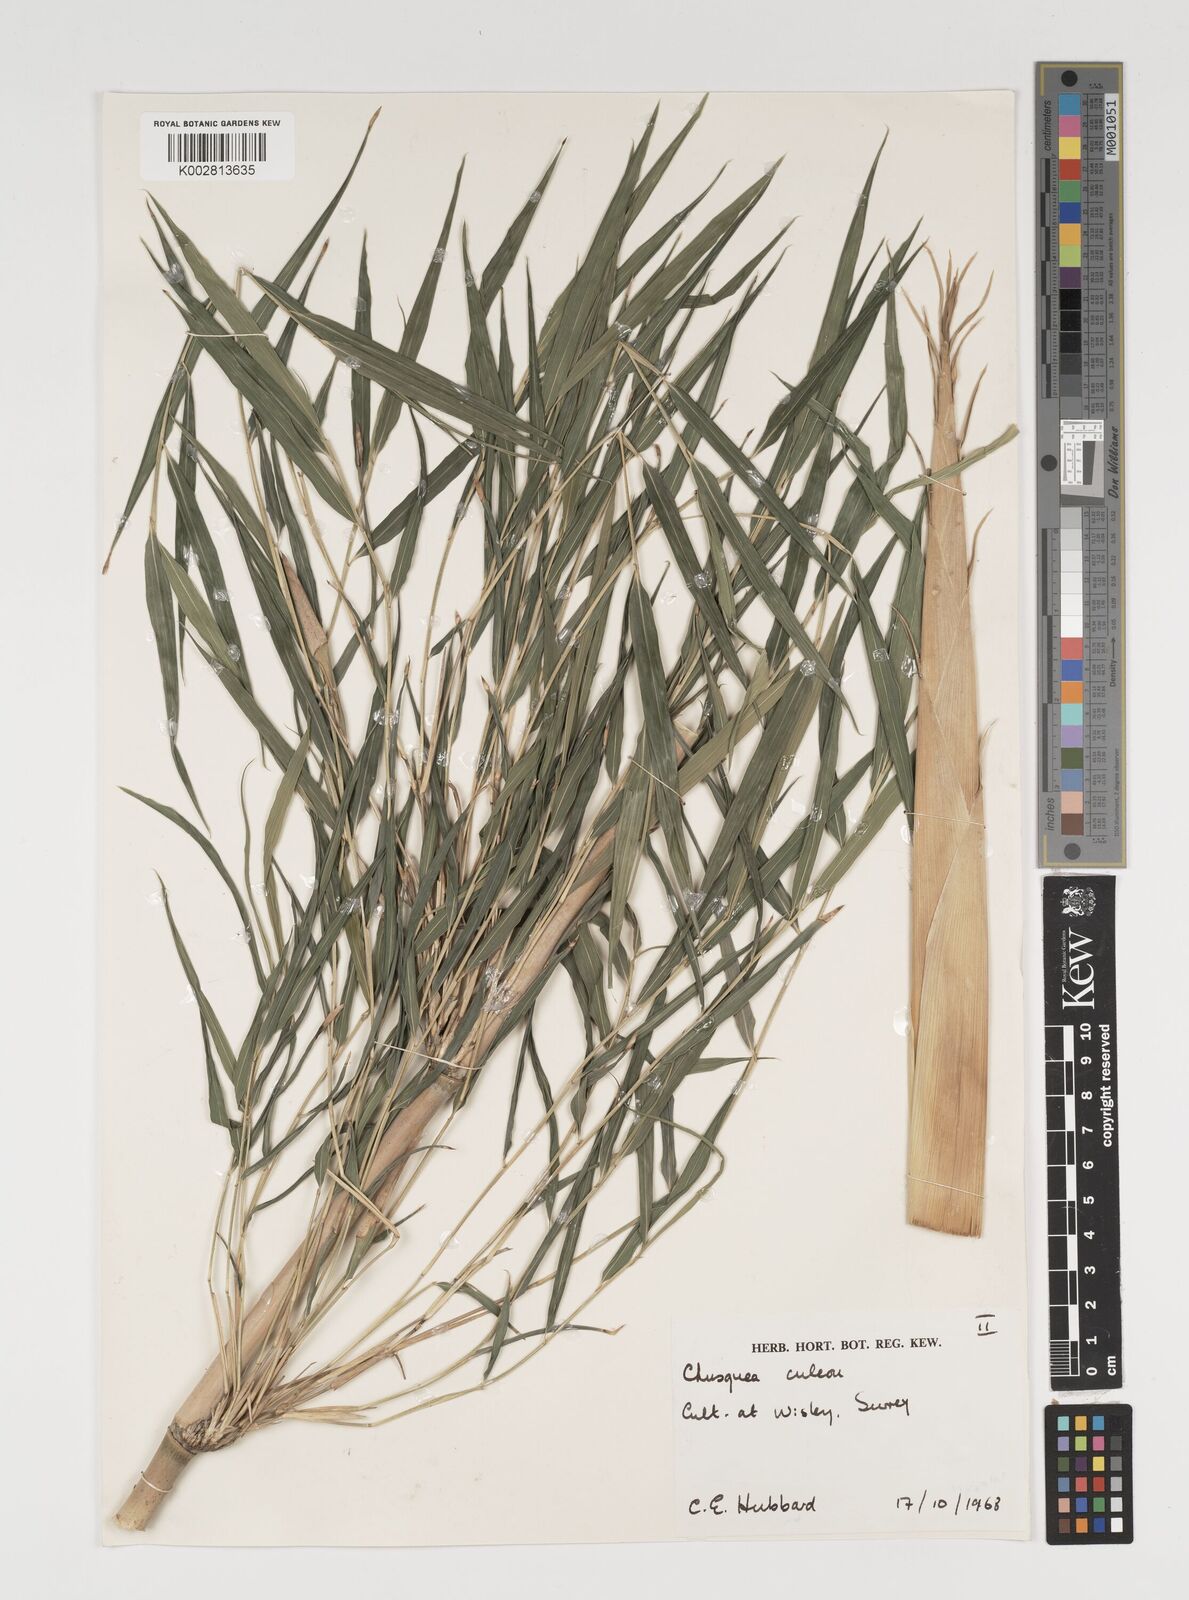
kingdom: Plantae
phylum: Tracheophyta
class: Liliopsida
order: Poales
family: Poaceae
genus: Chusquea
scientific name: Chusquea culeou
